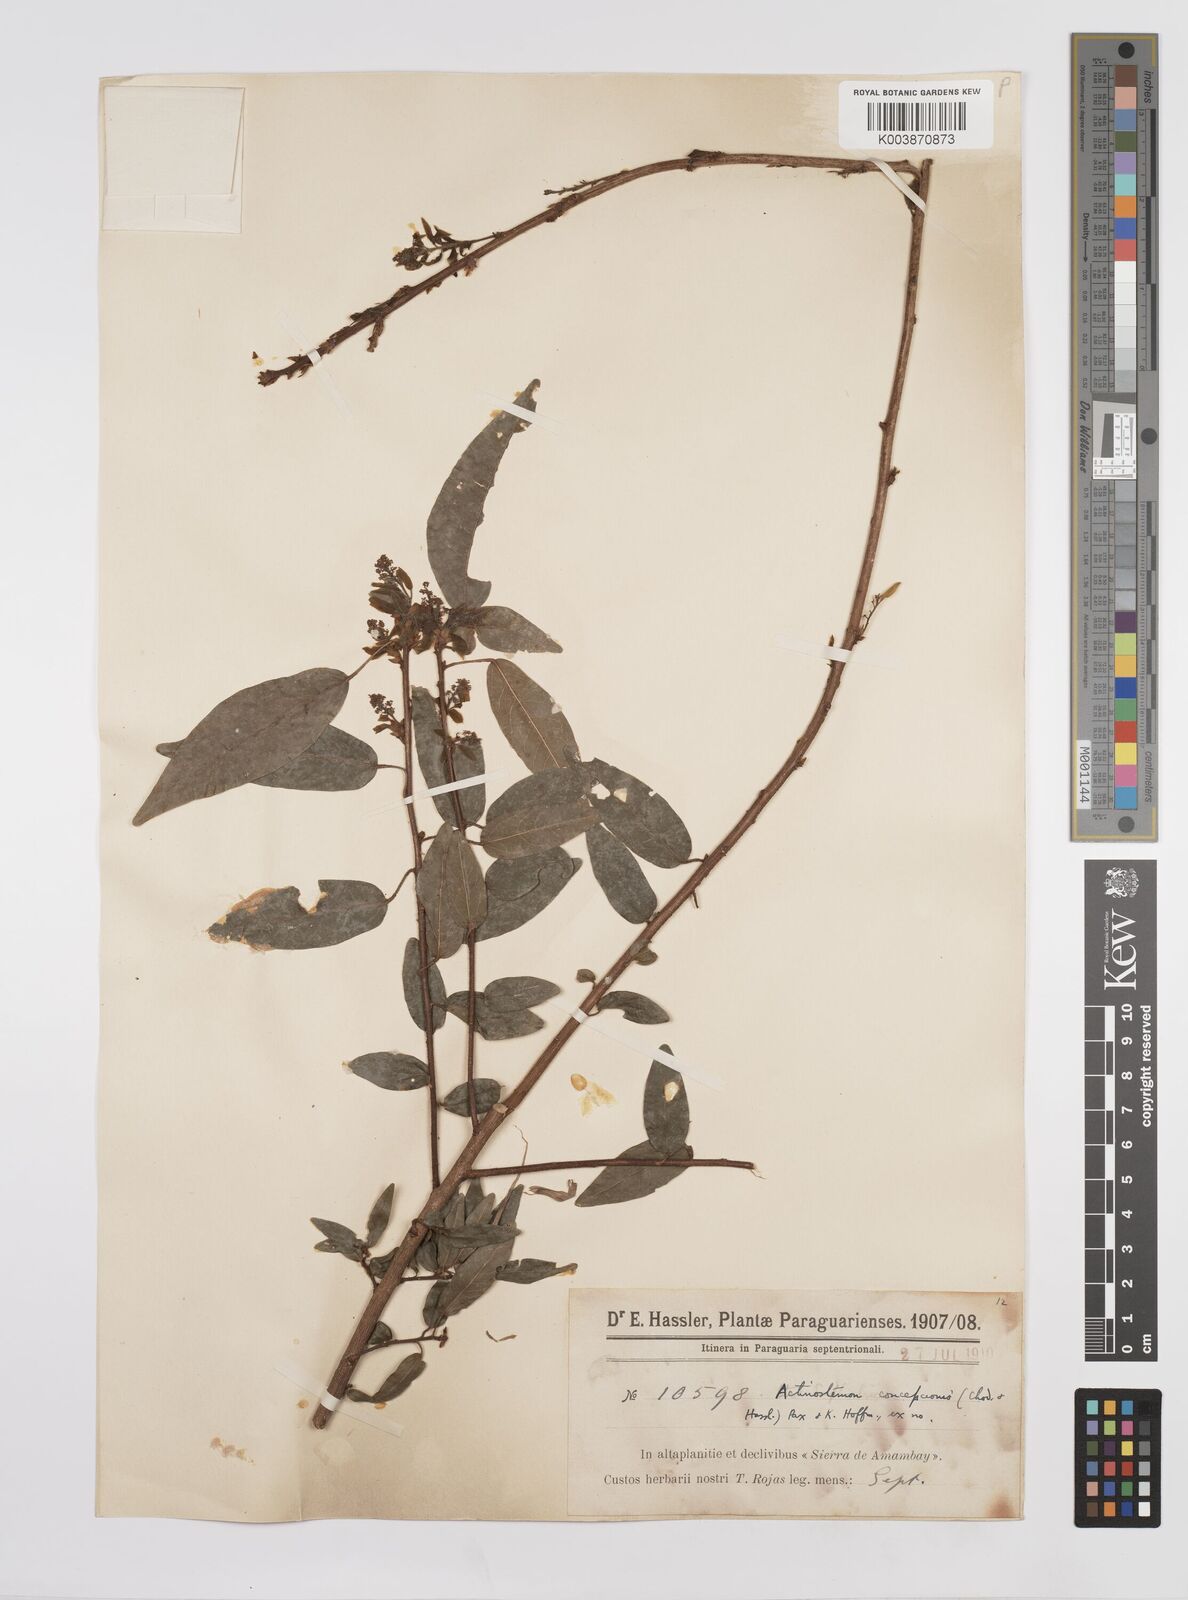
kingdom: Plantae
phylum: Tracheophyta
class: Magnoliopsida
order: Malpighiales
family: Euphorbiaceae
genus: Actinostemon
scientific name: Actinostemon concepcionis
